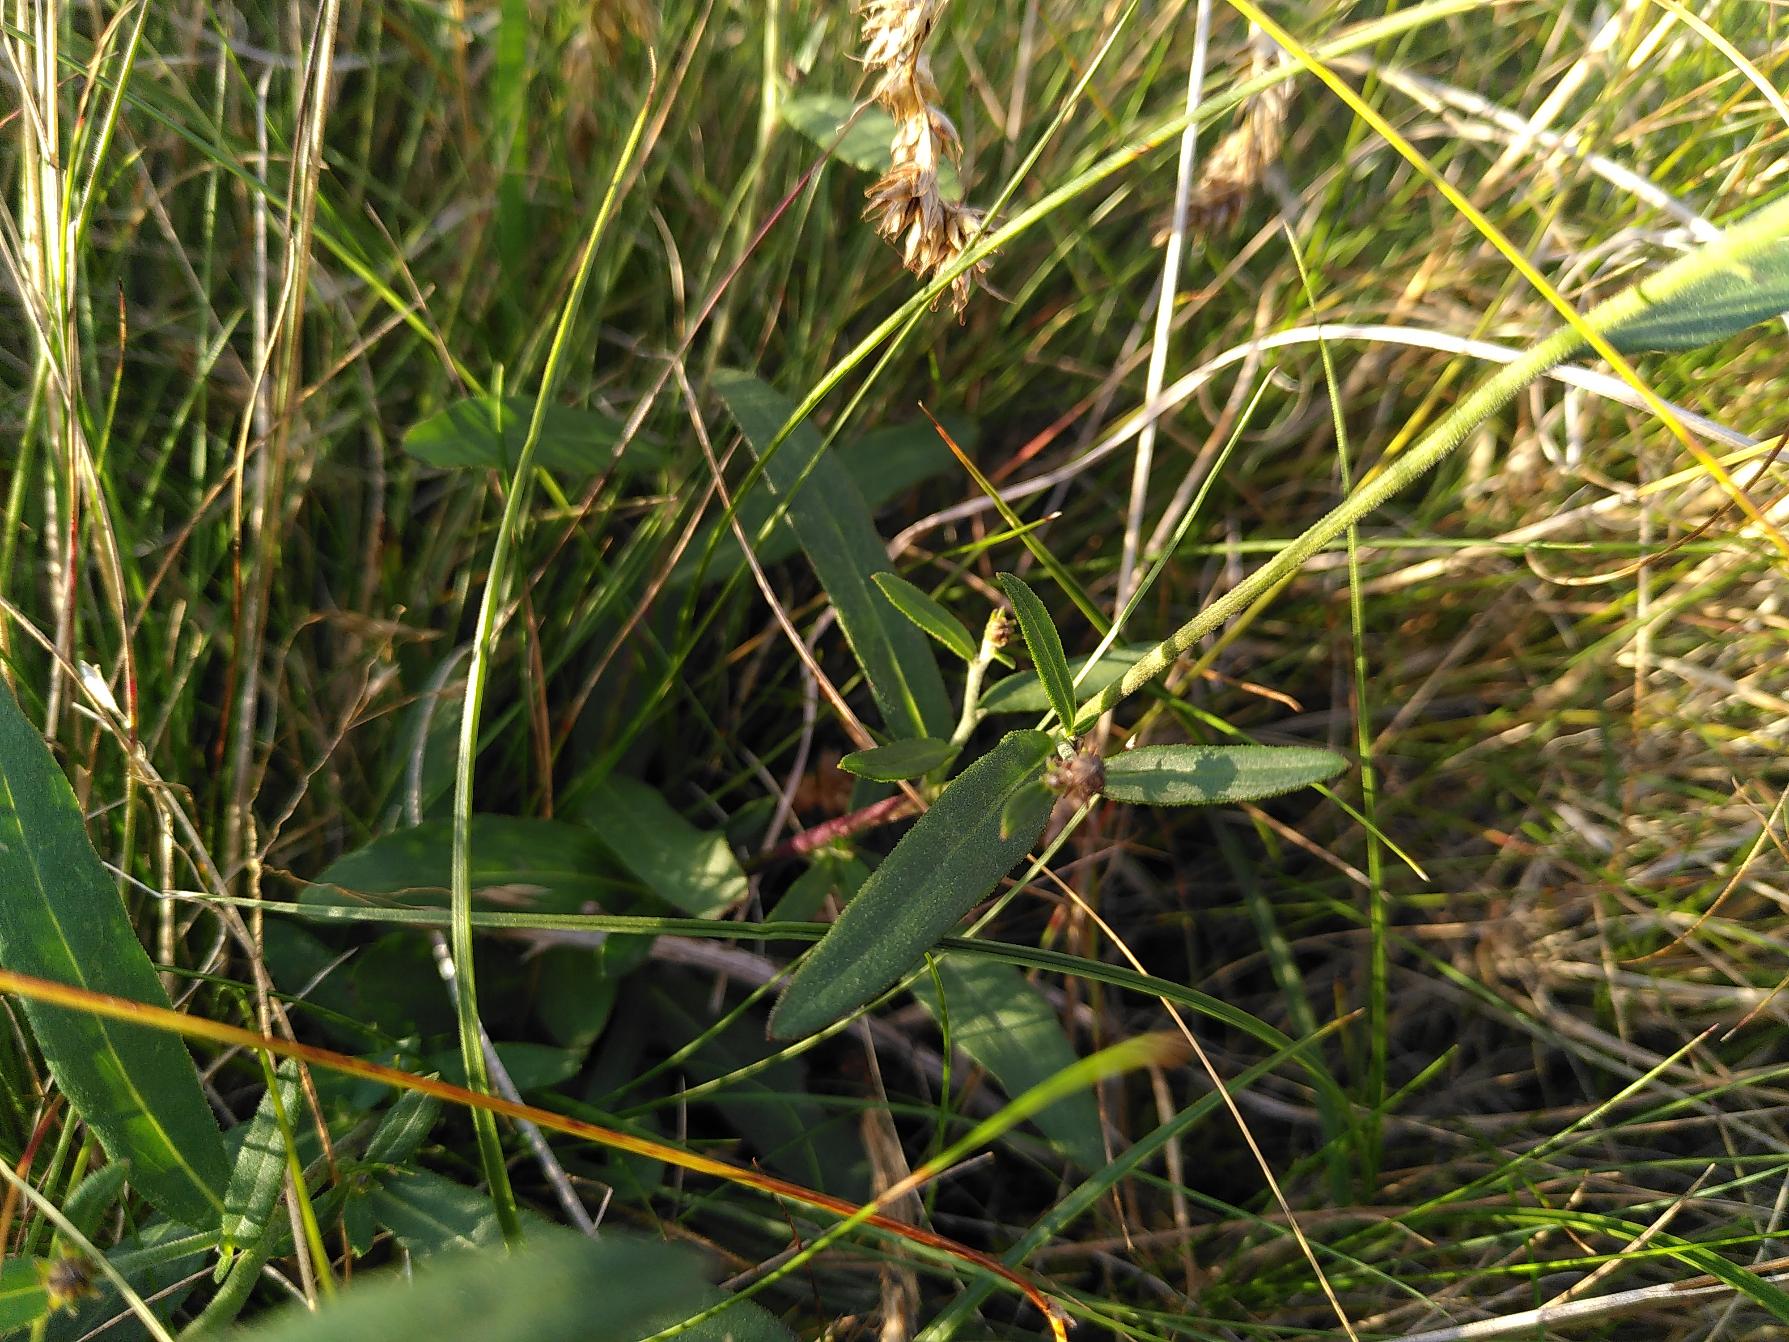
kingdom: Plantae
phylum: Tracheophyta
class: Magnoliopsida
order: Asterales
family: Asteraceae
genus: Hieracium
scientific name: Hieracium umbellatum
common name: Smalbladet høgeurt
